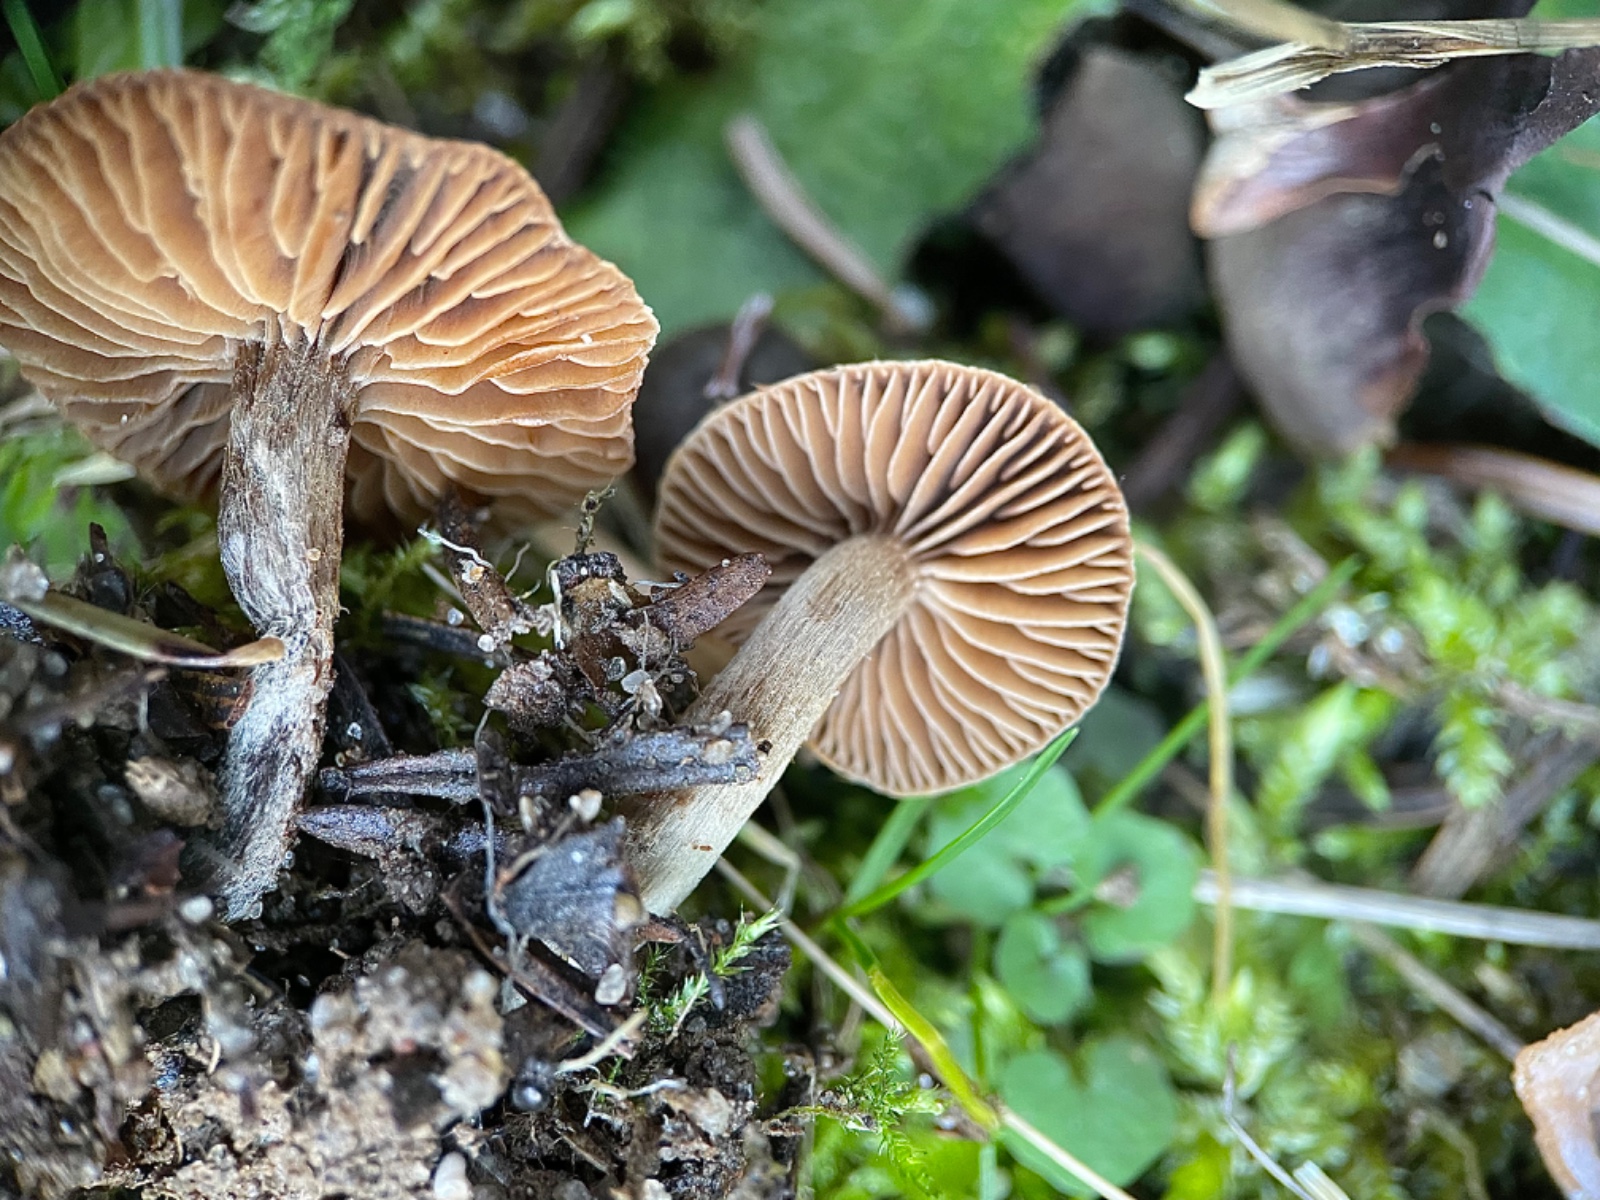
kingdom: Fungi
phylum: Basidiomycota
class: Agaricomycetes
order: Agaricales
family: Cortinariaceae
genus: Cortinarius
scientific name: Cortinarius
